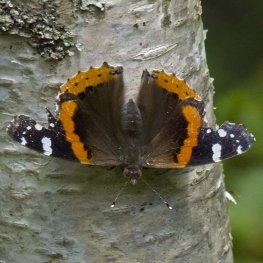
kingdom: Animalia
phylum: Arthropoda
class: Insecta
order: Lepidoptera
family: Nymphalidae
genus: Vanessa
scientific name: Vanessa atalanta
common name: Red Admiral
